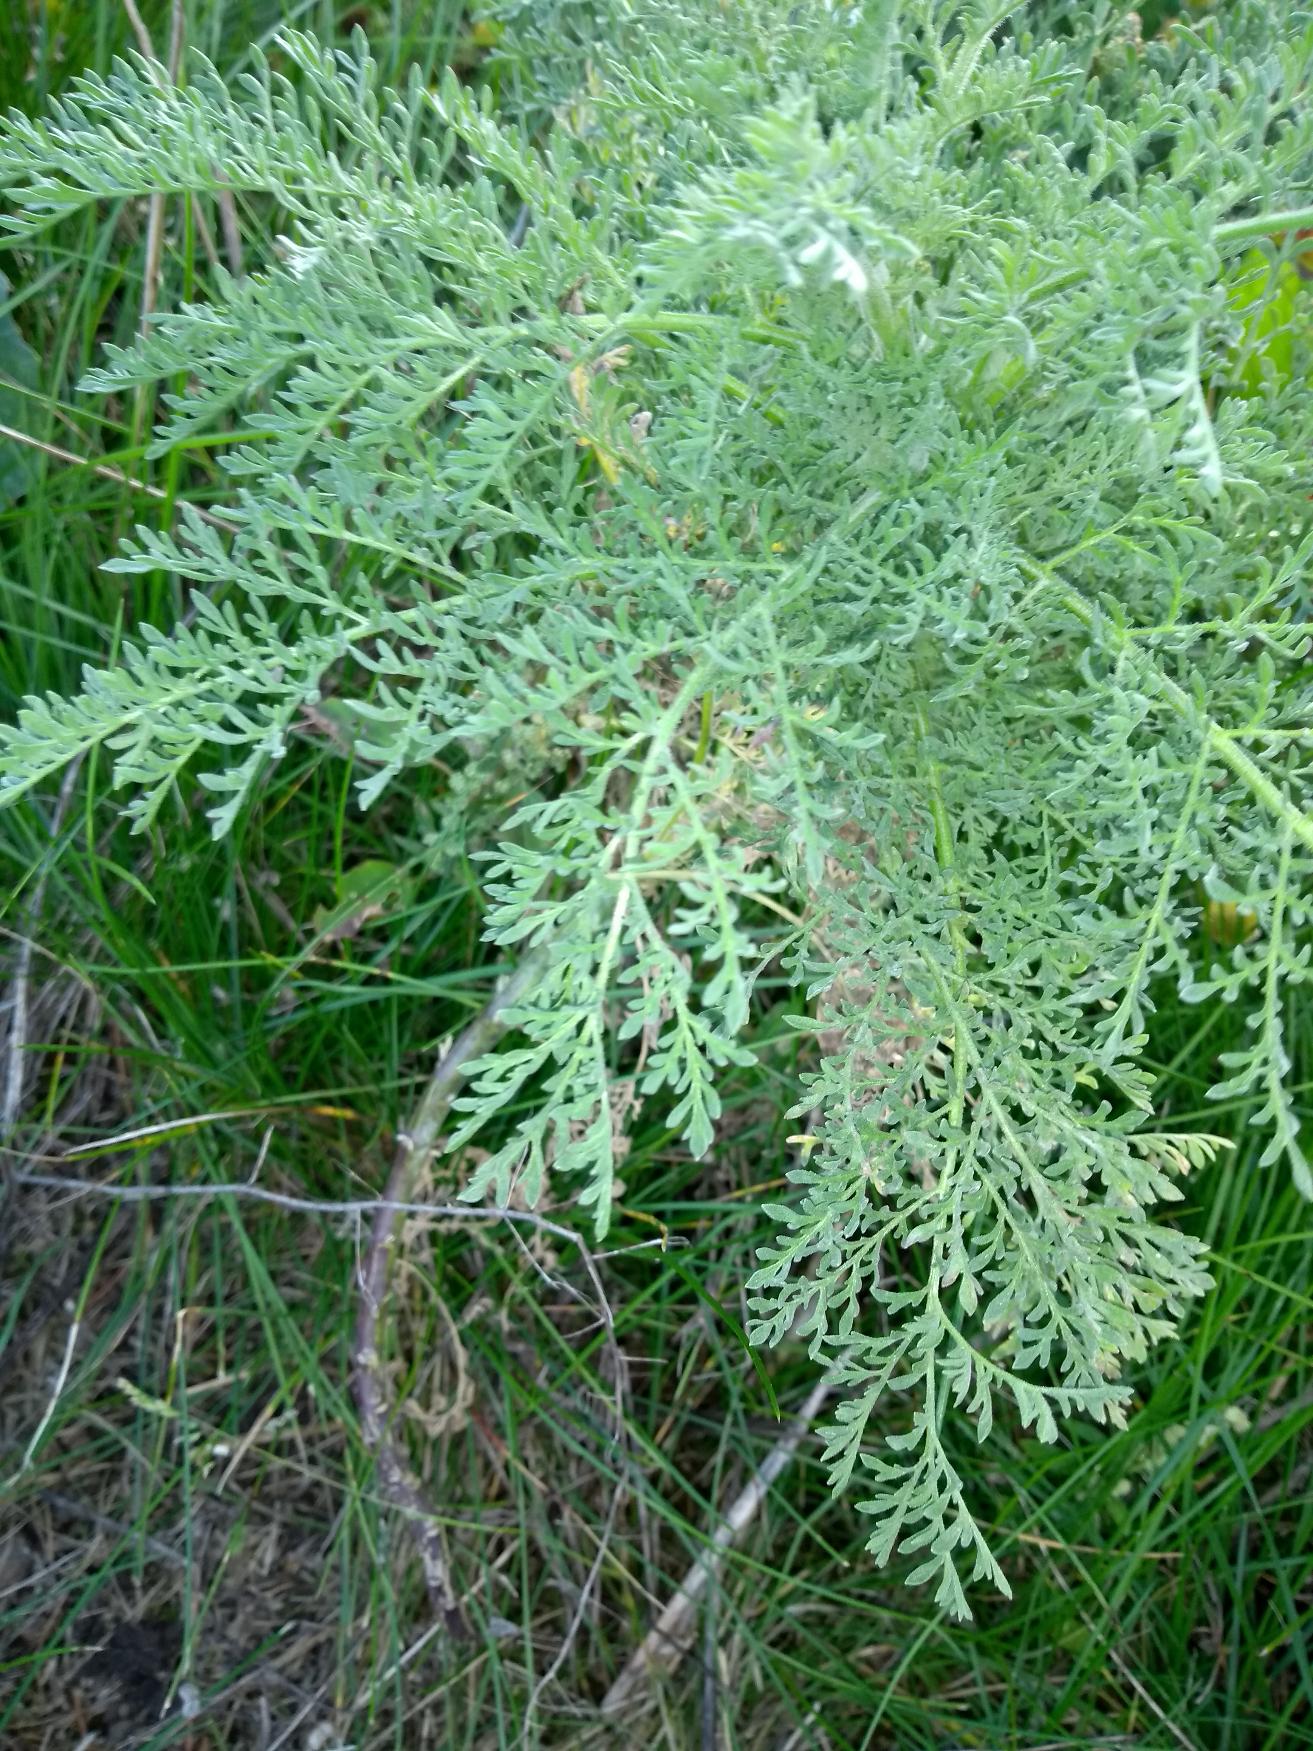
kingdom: Plantae
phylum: Tracheophyta
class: Magnoliopsida
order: Brassicales
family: Brassicaceae
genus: Descurainia
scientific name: Descurainia sophia
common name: Finbladet vejsennep
